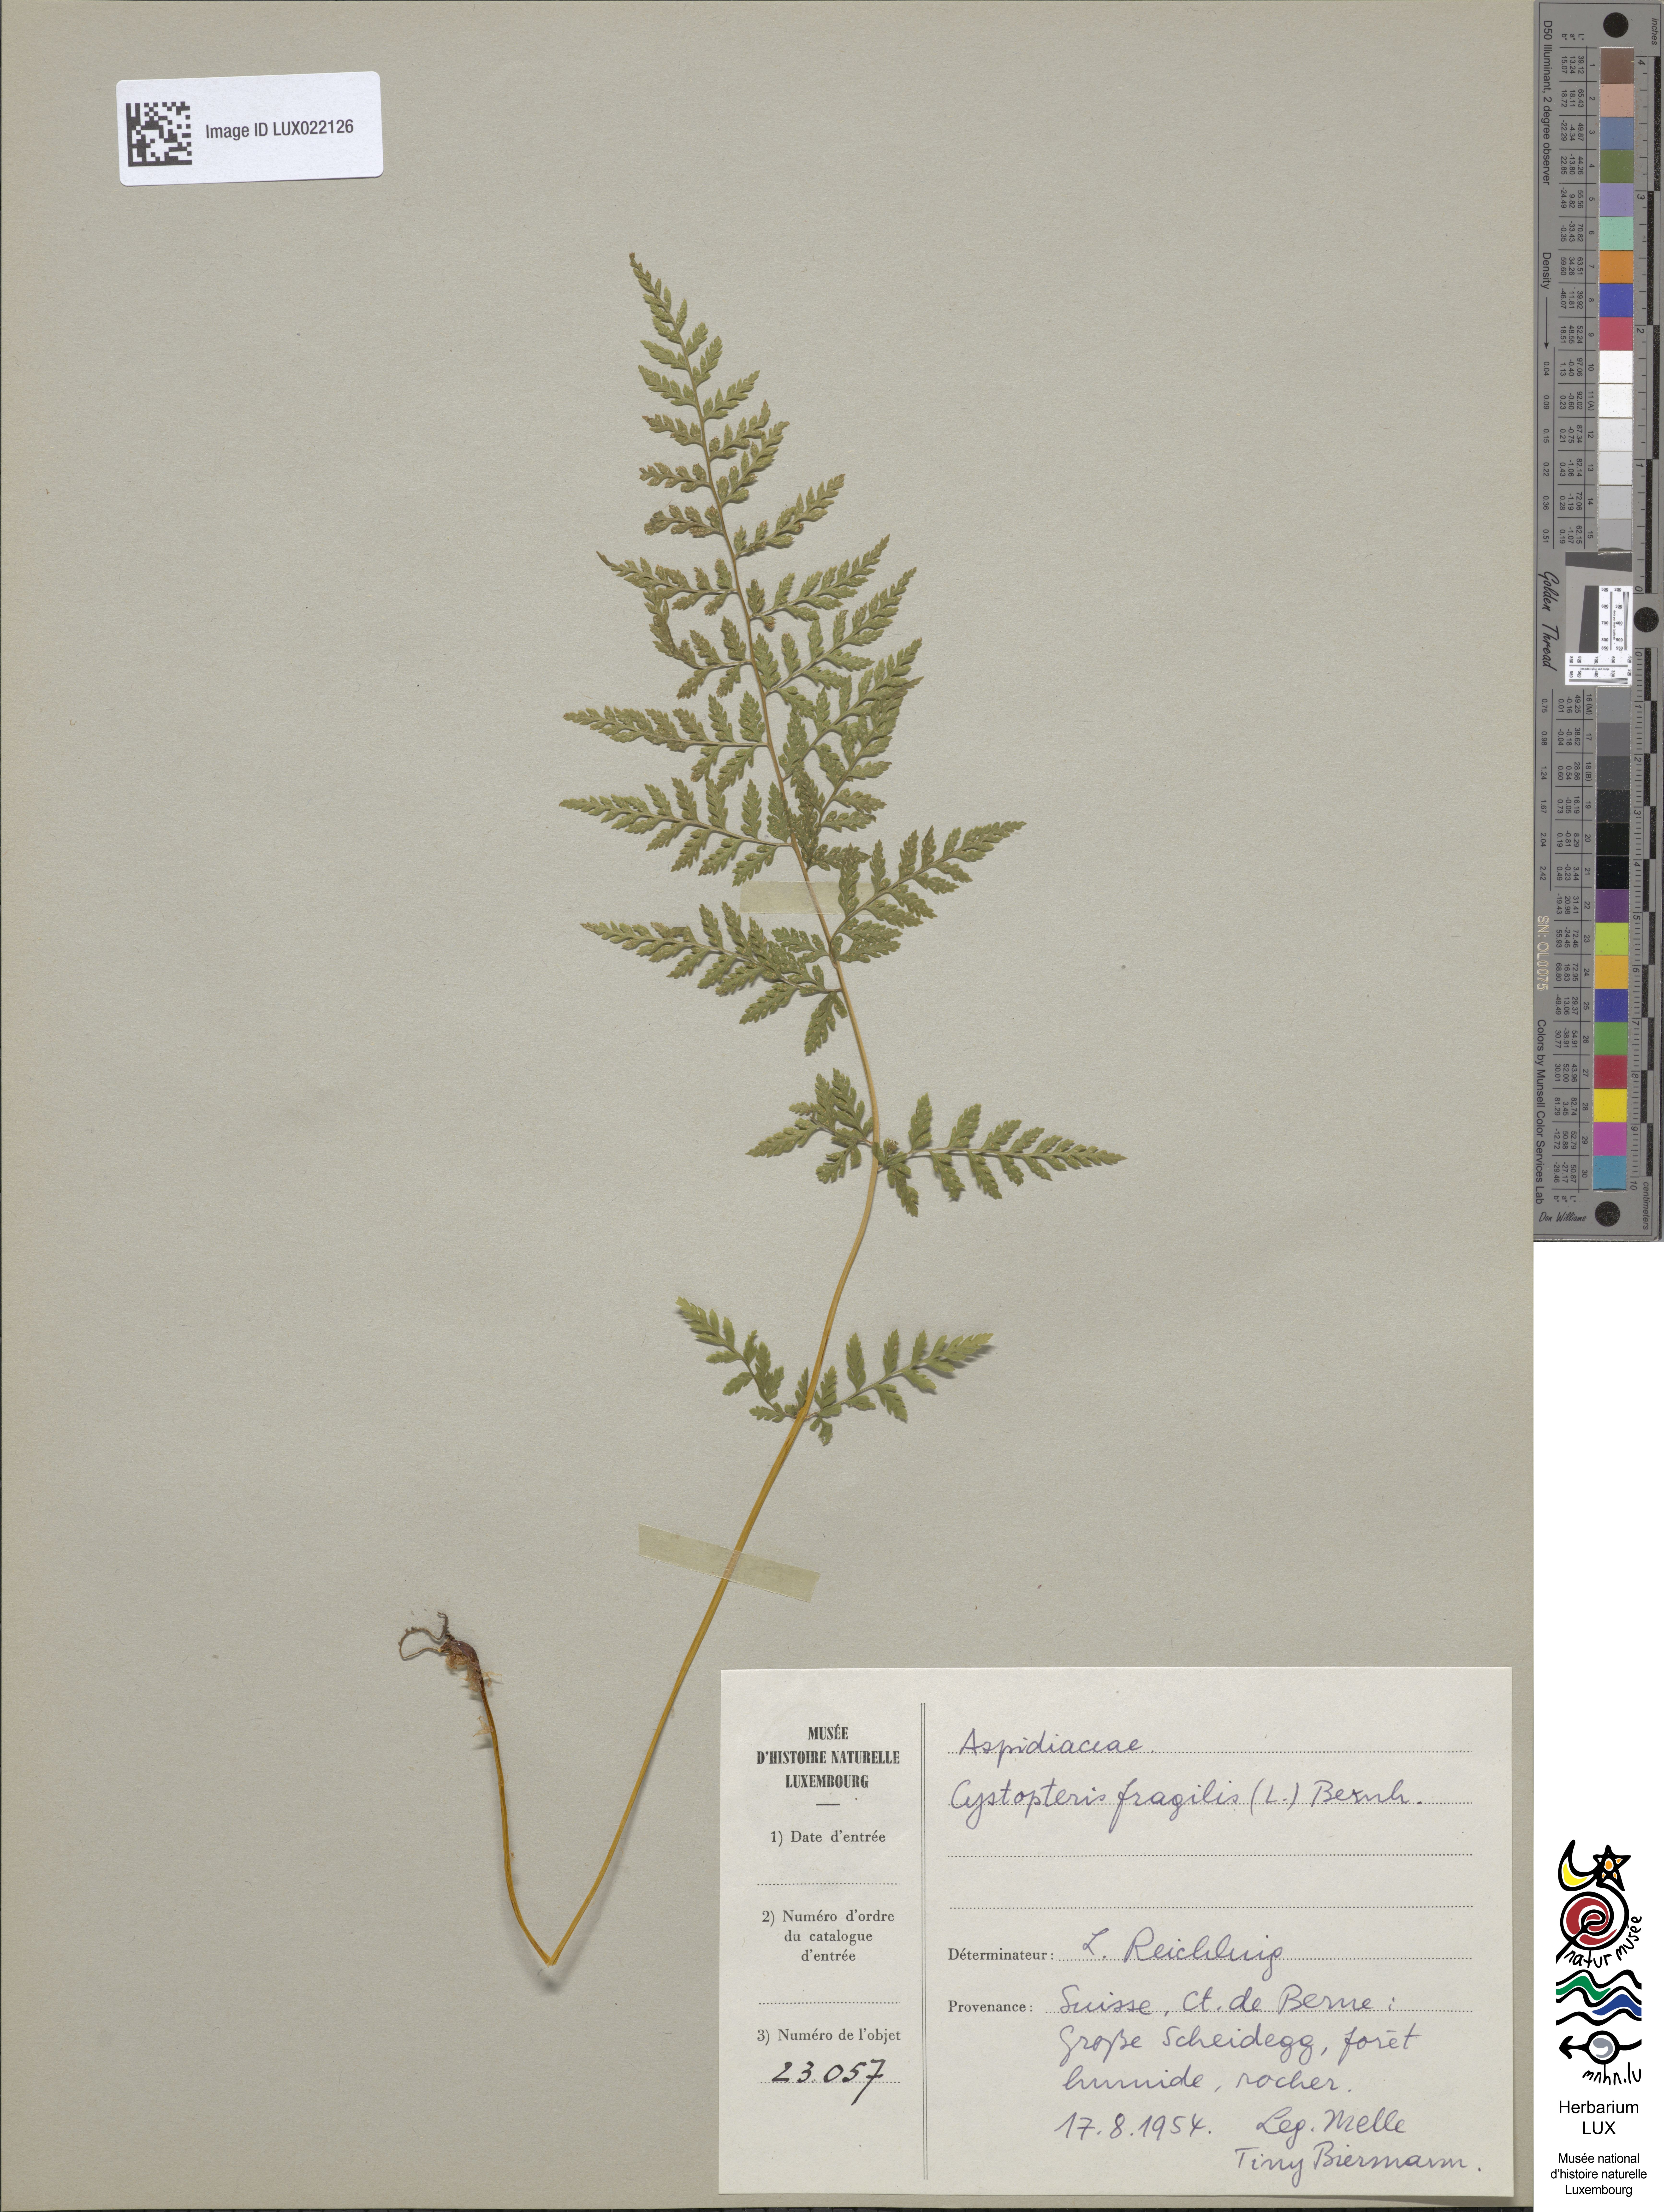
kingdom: Plantae
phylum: Tracheophyta
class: Polypodiopsida
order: Polypodiales
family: Cystopteridaceae
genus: Cystopteris
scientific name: Cystopteris fragilis
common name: Brittle bladder fern
